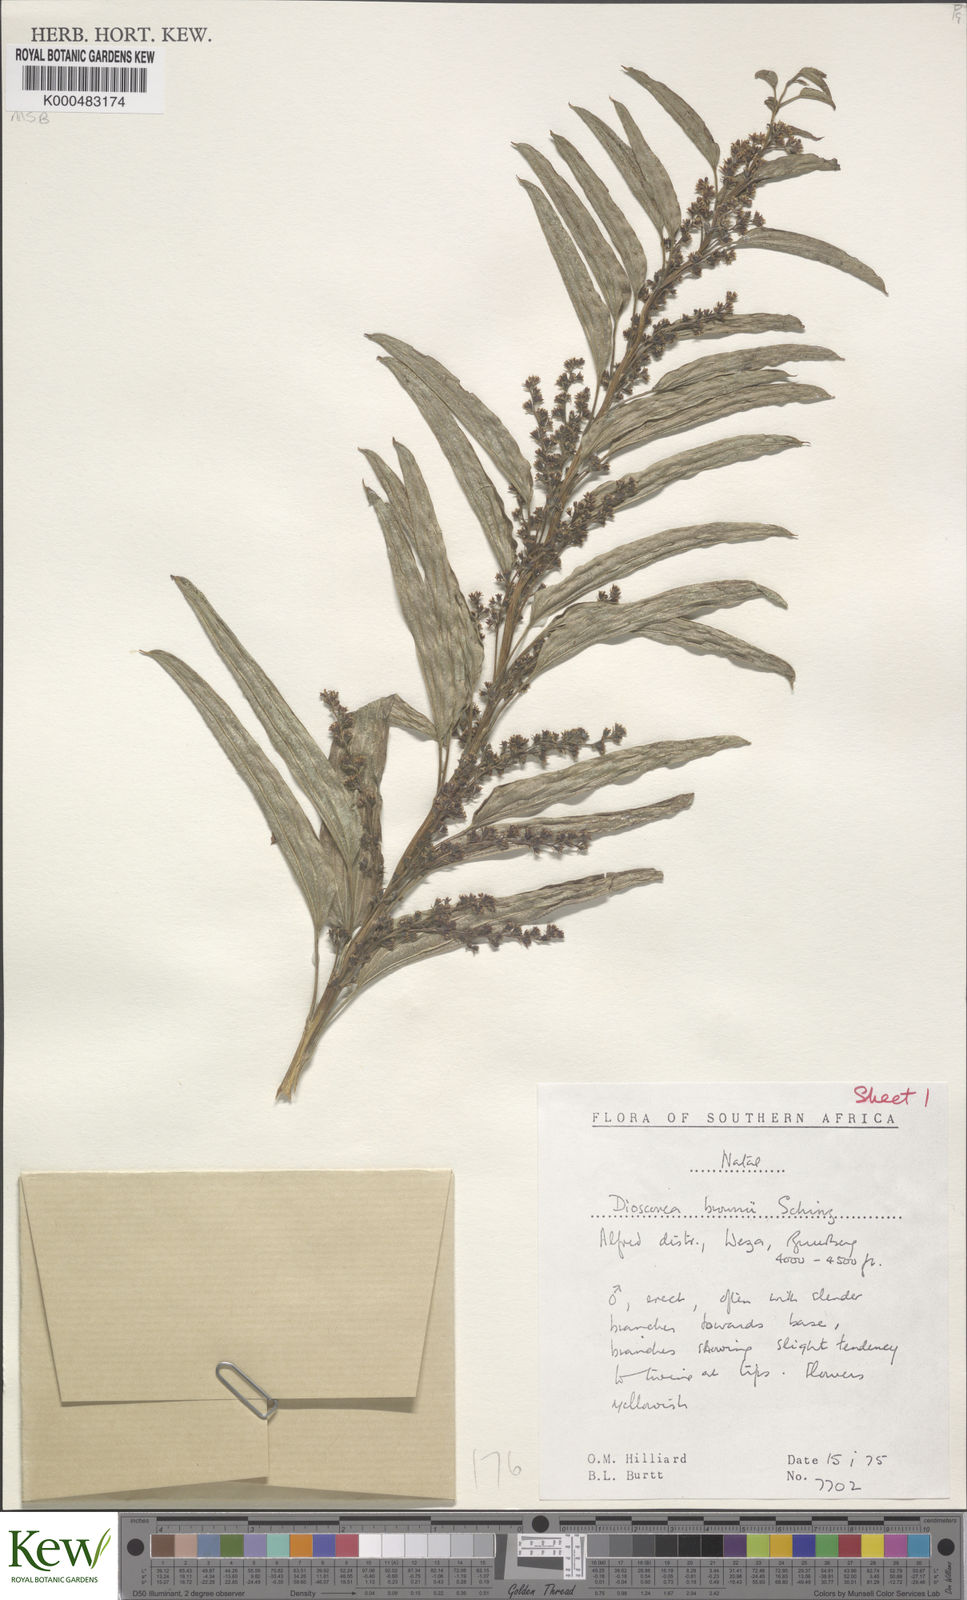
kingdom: Plantae
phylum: Tracheophyta
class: Liliopsida
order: Dioscoreales
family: Dioscoreaceae
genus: Dioscorea
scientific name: Dioscorea brownii
